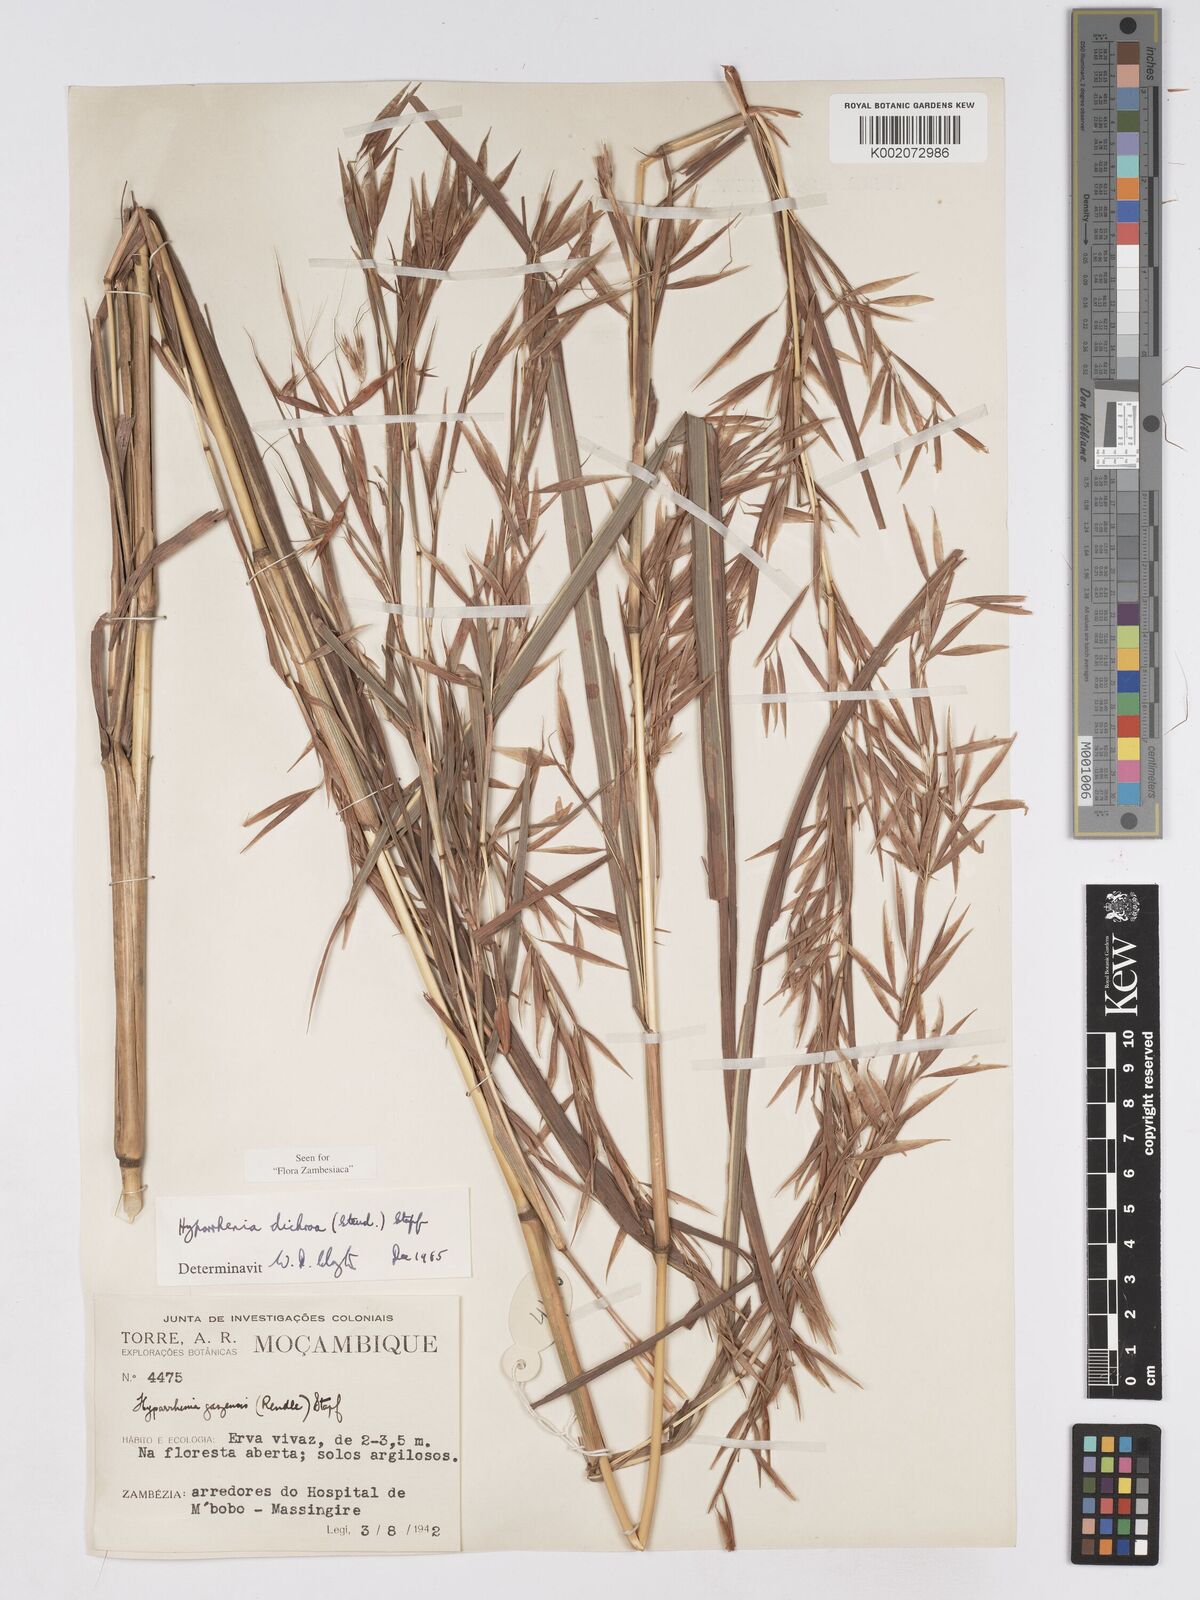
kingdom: Plantae
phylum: Tracheophyta
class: Liliopsida
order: Poales
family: Poaceae
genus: Hyparrhenia
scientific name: Hyparrhenia dichroa
